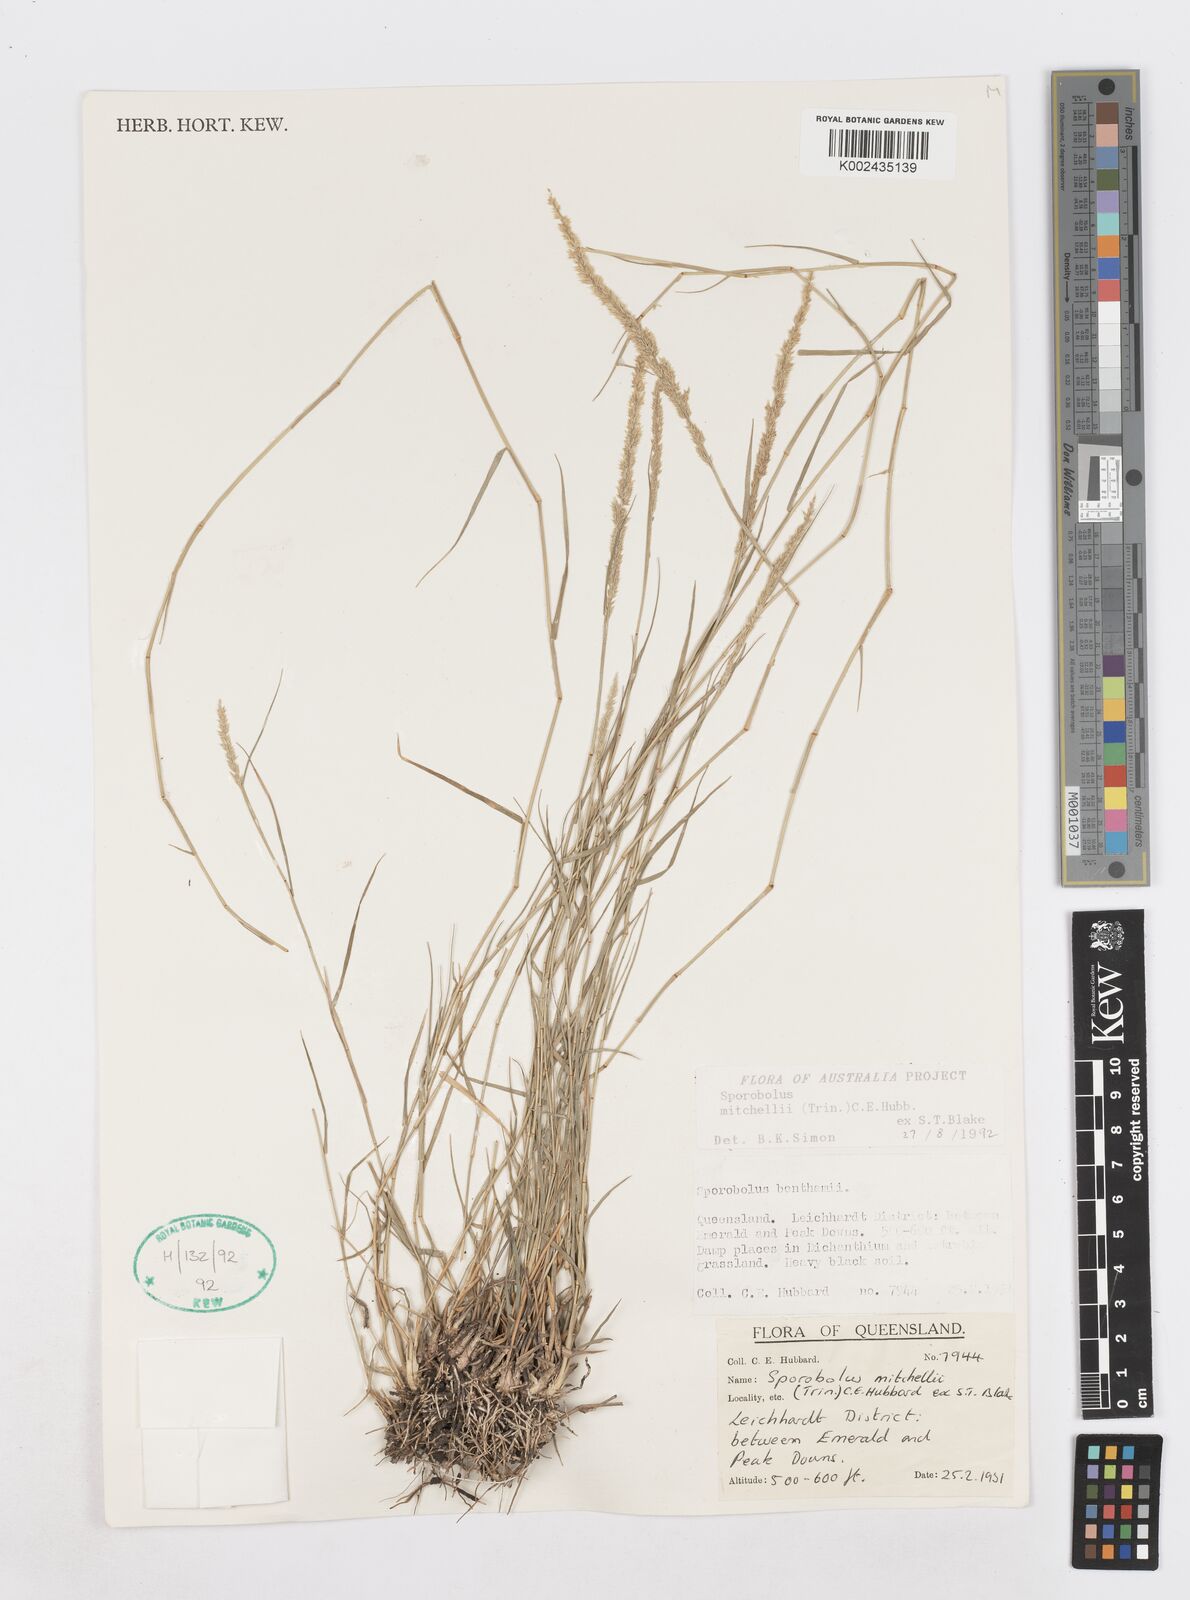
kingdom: Plantae
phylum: Tracheophyta
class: Liliopsida
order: Poales
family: Poaceae
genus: Sporobolus
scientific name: Sporobolus mitchellii
